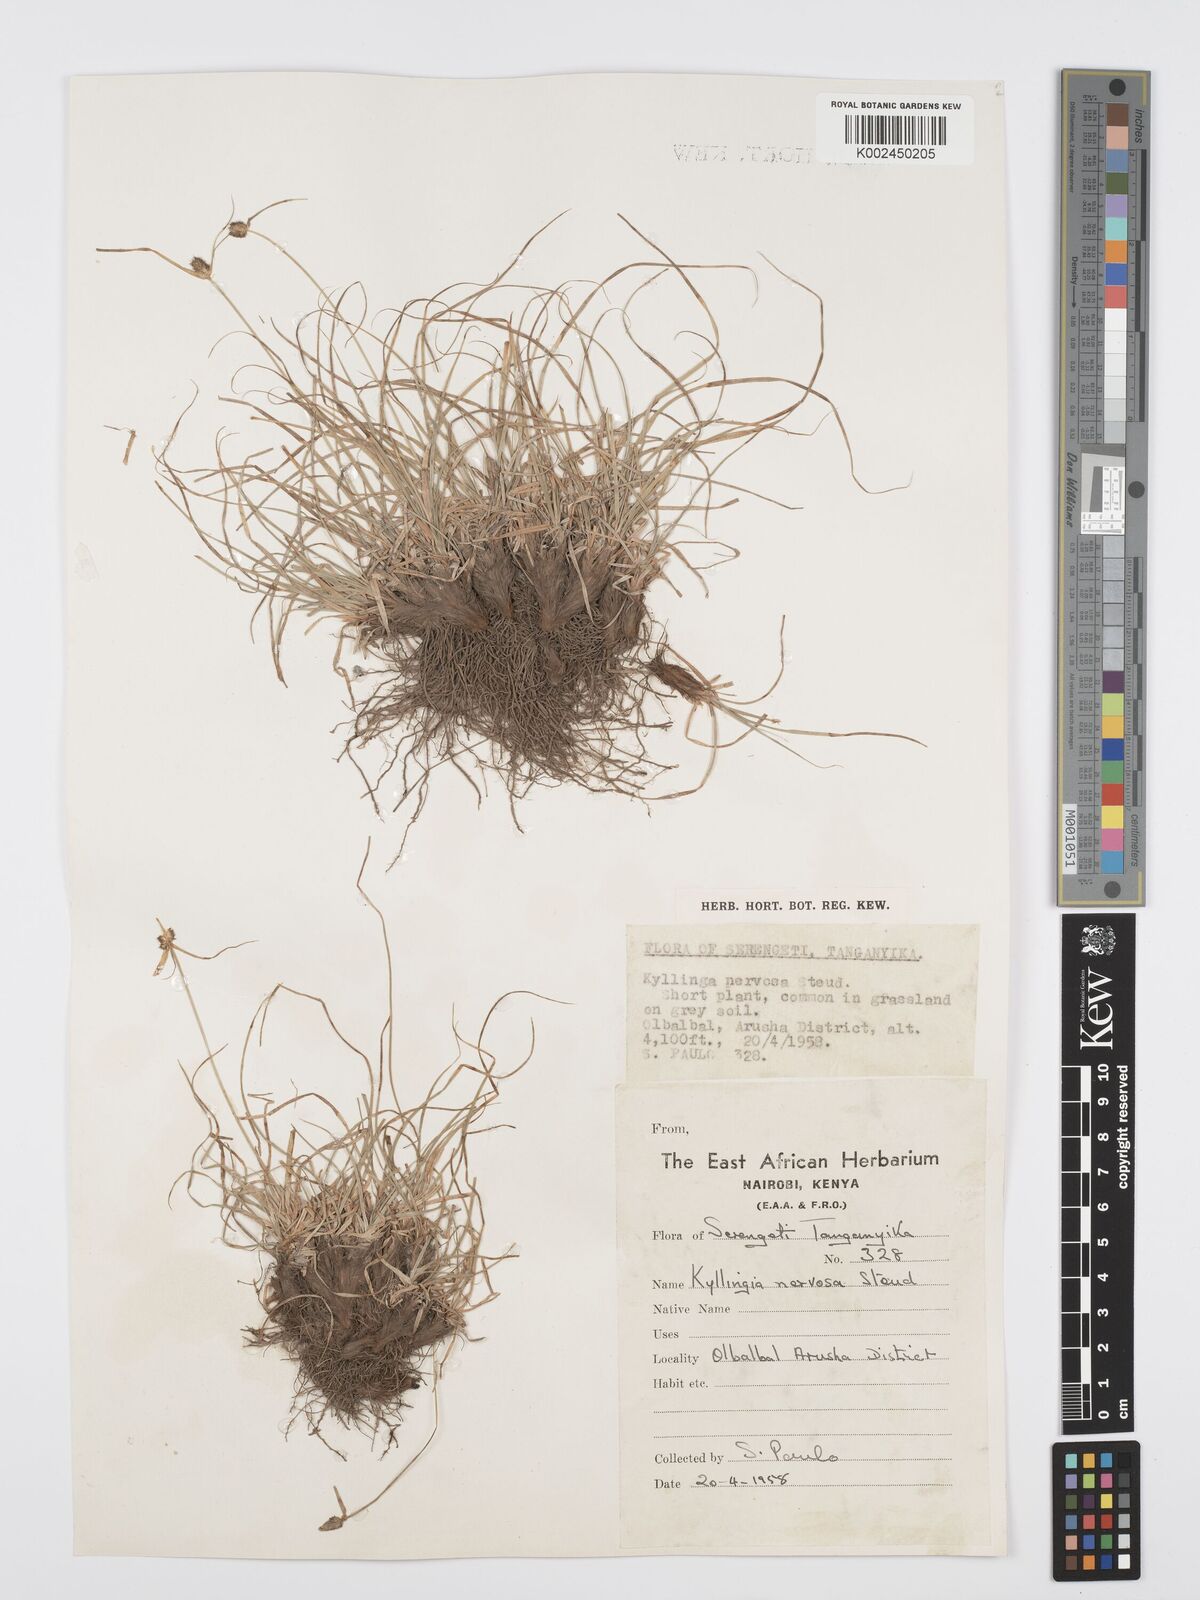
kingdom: Plantae
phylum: Tracheophyta
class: Liliopsida
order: Poales
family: Cyperaceae
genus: Cyperus
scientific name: Cyperus
